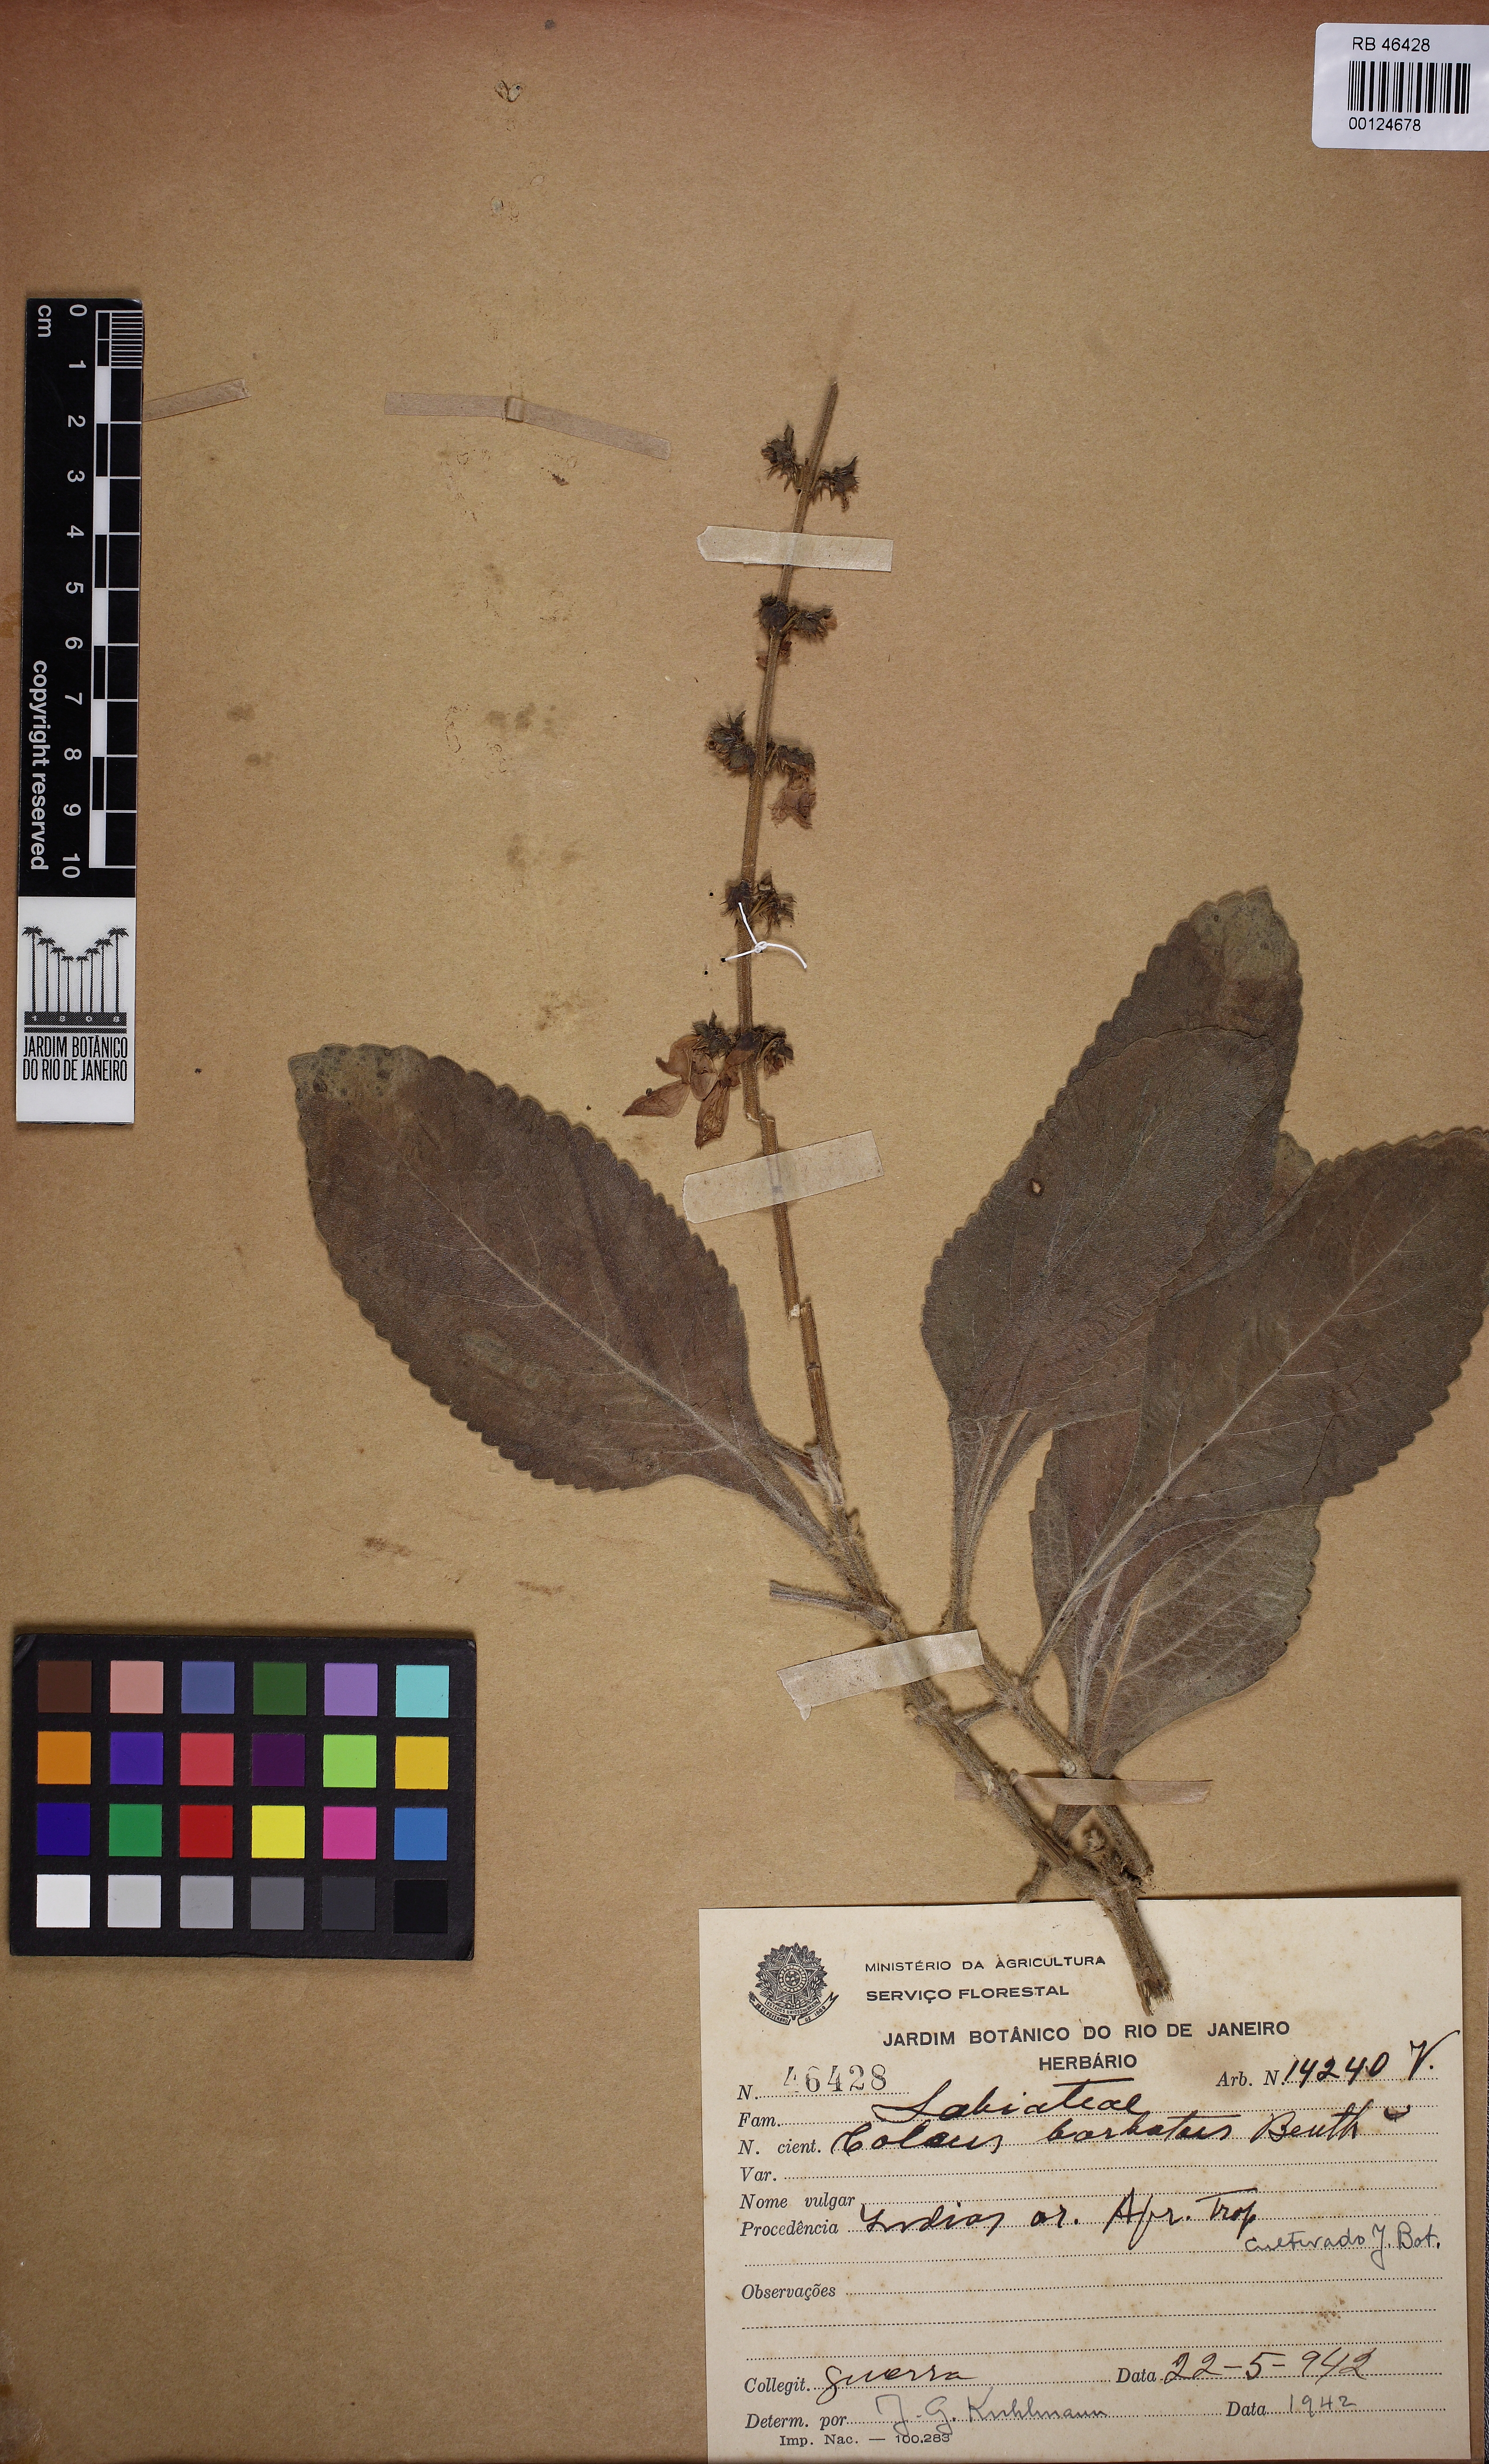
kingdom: Plantae
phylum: Tracheophyta
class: Magnoliopsida
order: Lamiales
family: Lamiaceae
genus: Coleus
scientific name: Coleus barbatus
